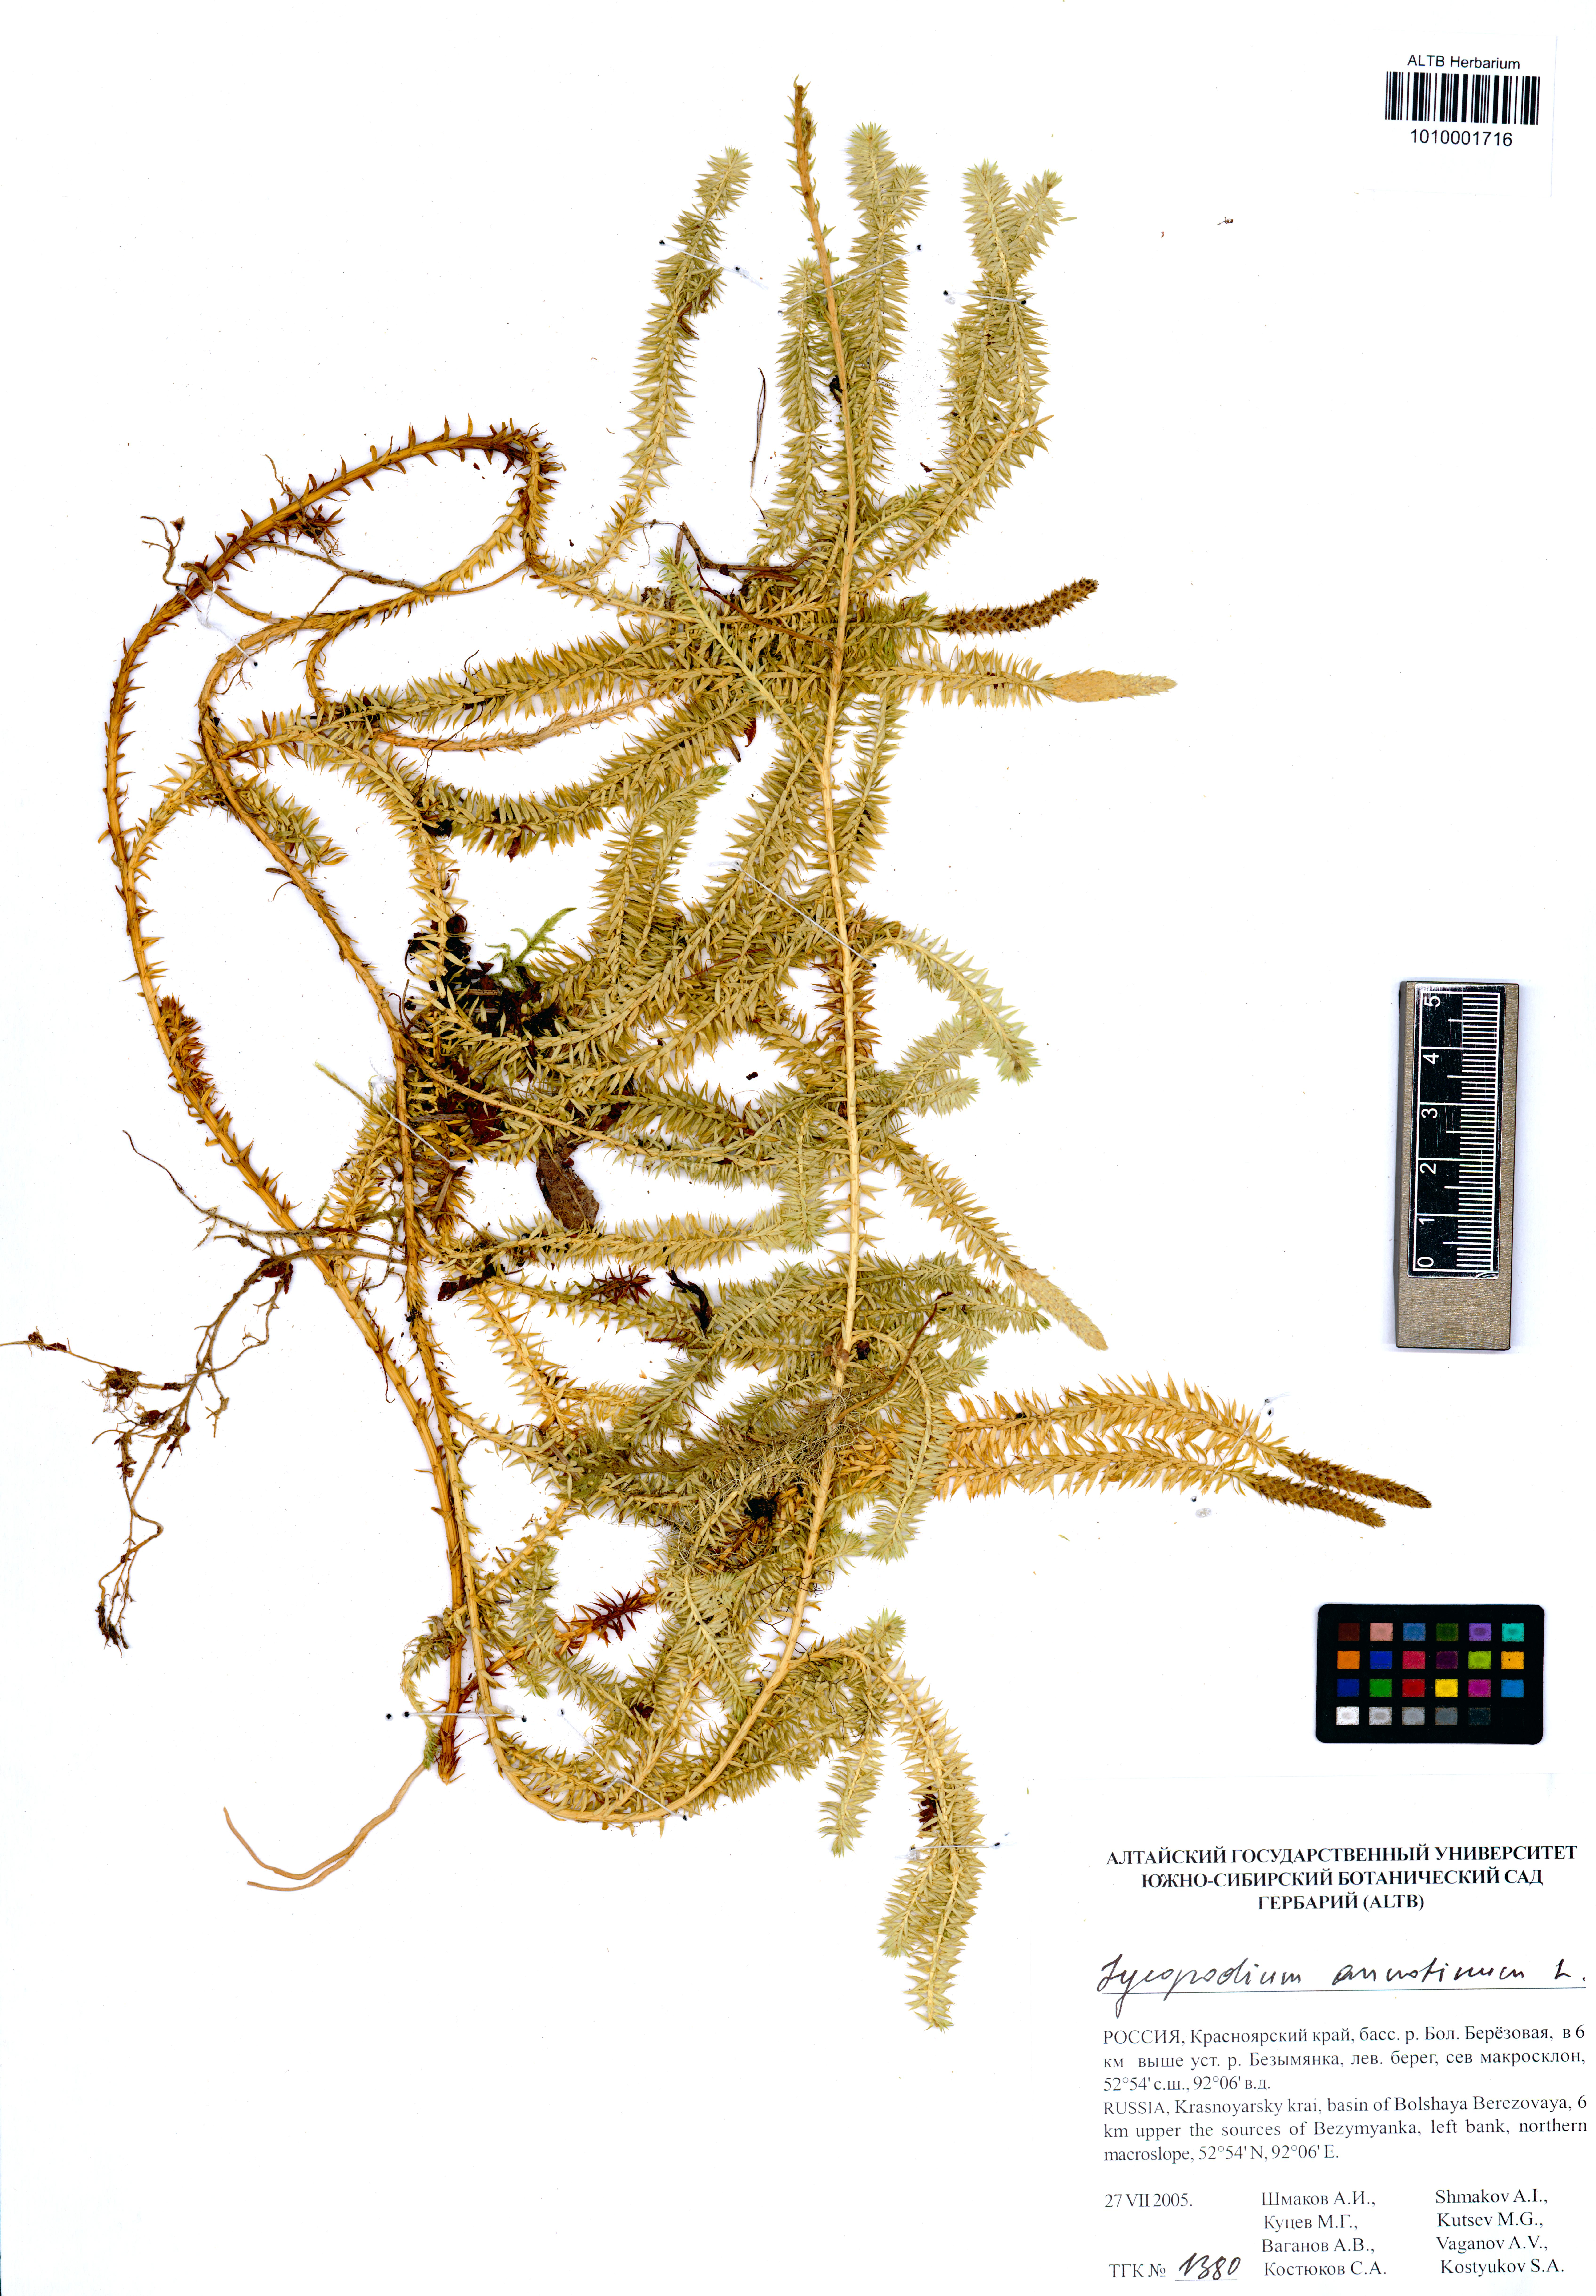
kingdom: Plantae
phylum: Tracheophyta
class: Lycopodiopsida
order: Lycopodiales
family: Lycopodiaceae
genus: Spinulum
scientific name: Spinulum annotinum
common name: Interrupted club-moss
